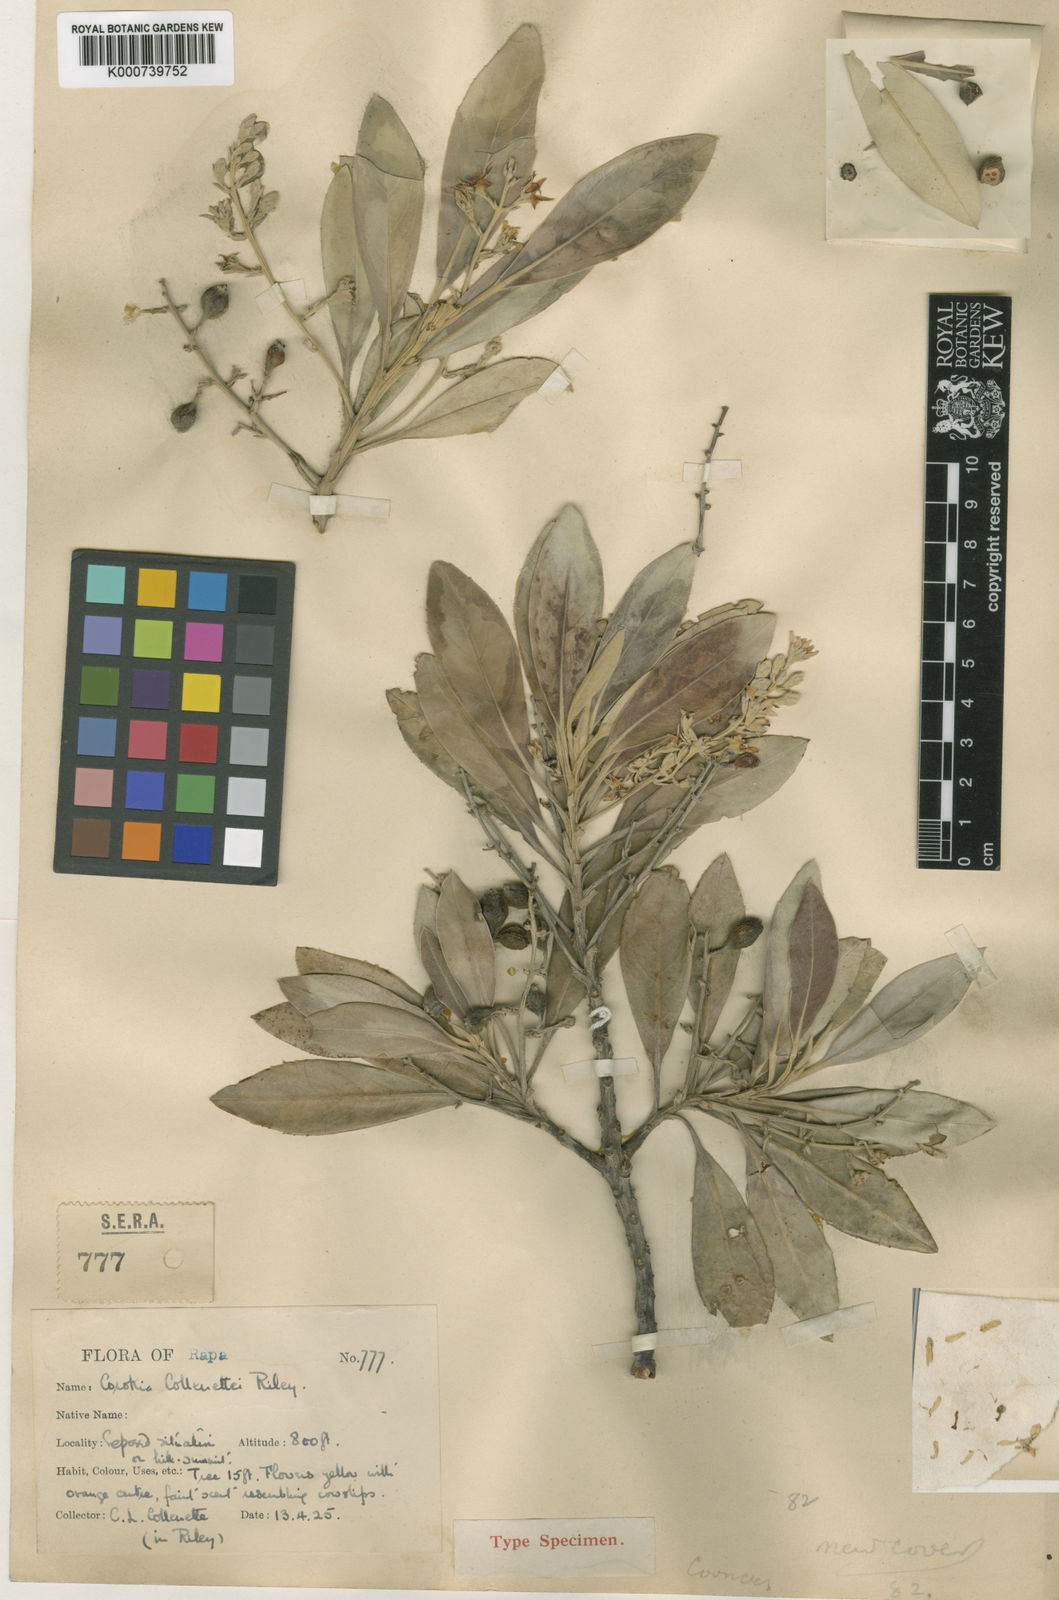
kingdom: Plantae
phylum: Tracheophyta
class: Magnoliopsida
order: Asterales
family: Argophyllaceae
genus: Corokia
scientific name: Corokia collenettei
